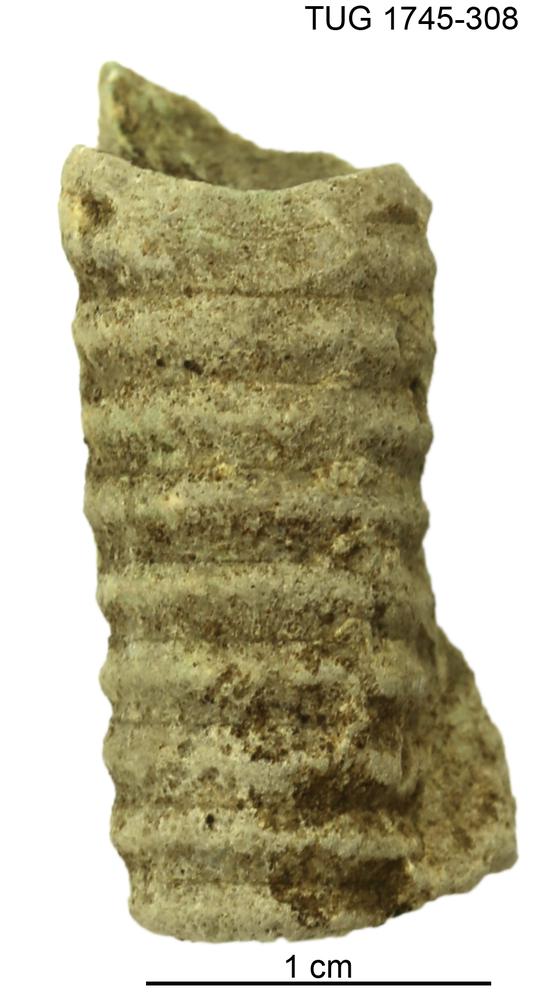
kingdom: Animalia
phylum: Mollusca
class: Cephalopoda
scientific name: Cephalopoda
